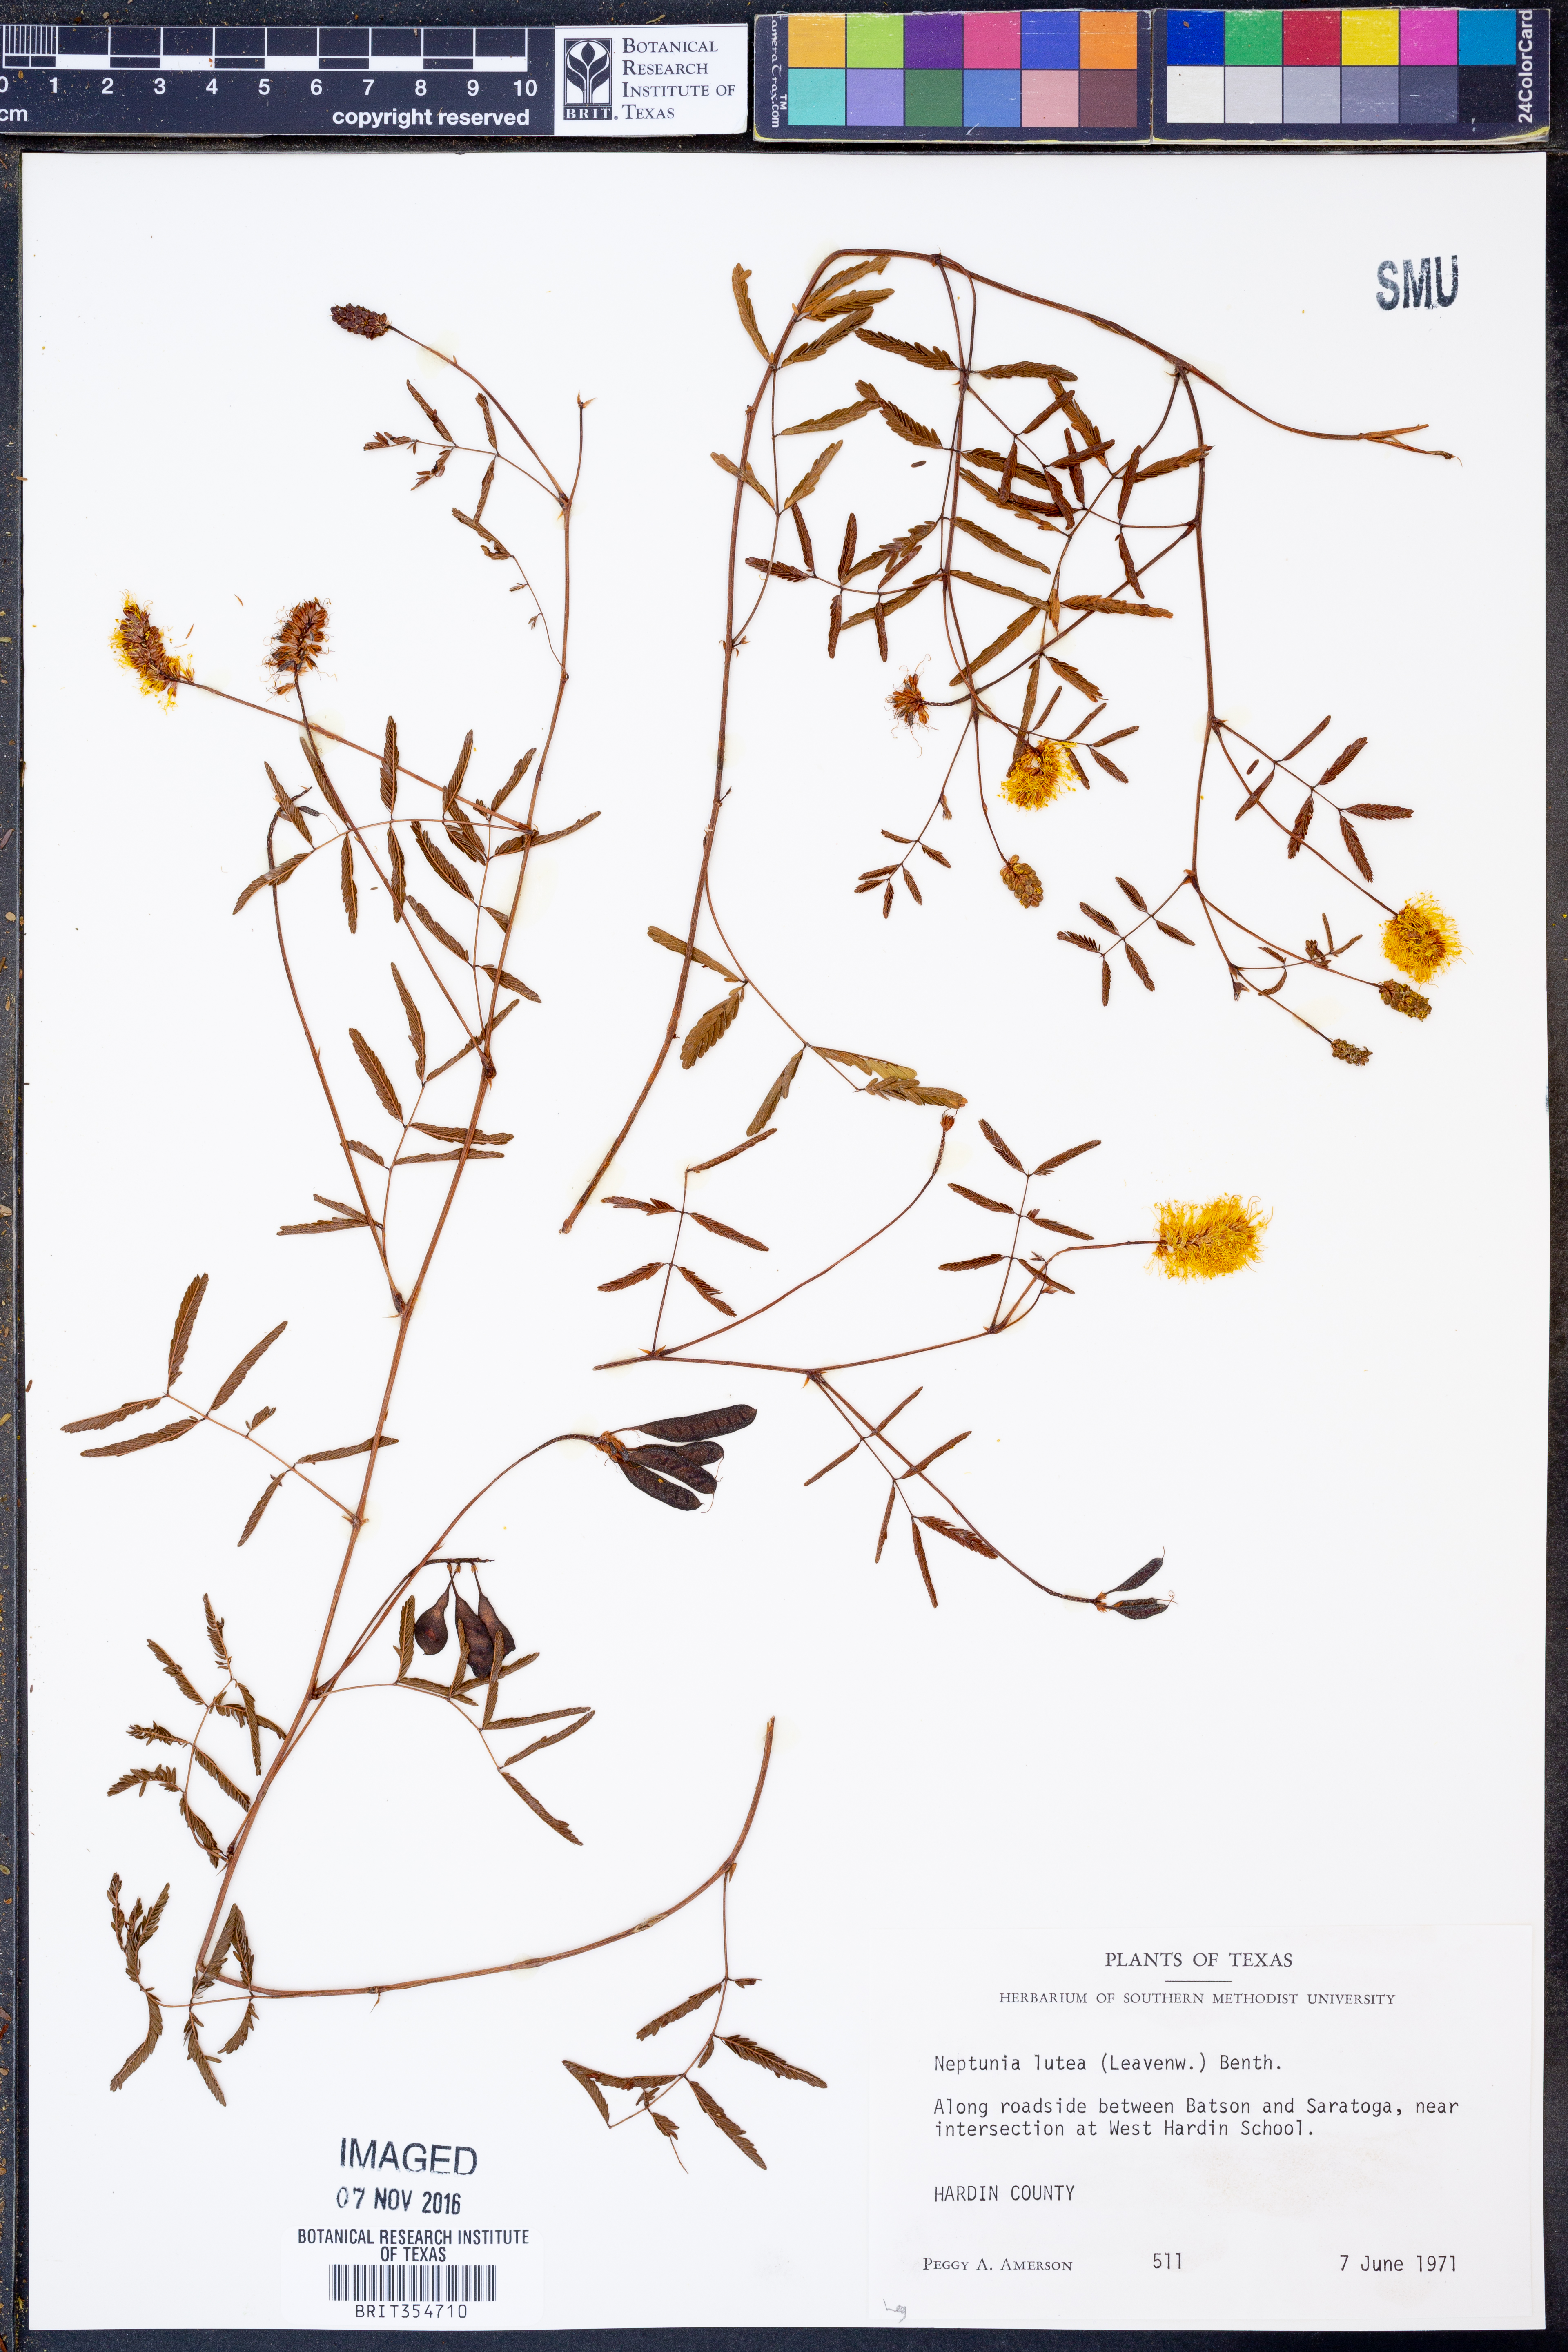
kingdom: Plantae
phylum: Tracheophyta
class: Magnoliopsida
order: Fabales
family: Fabaceae
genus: Neptunia
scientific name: Neptunia lutea
